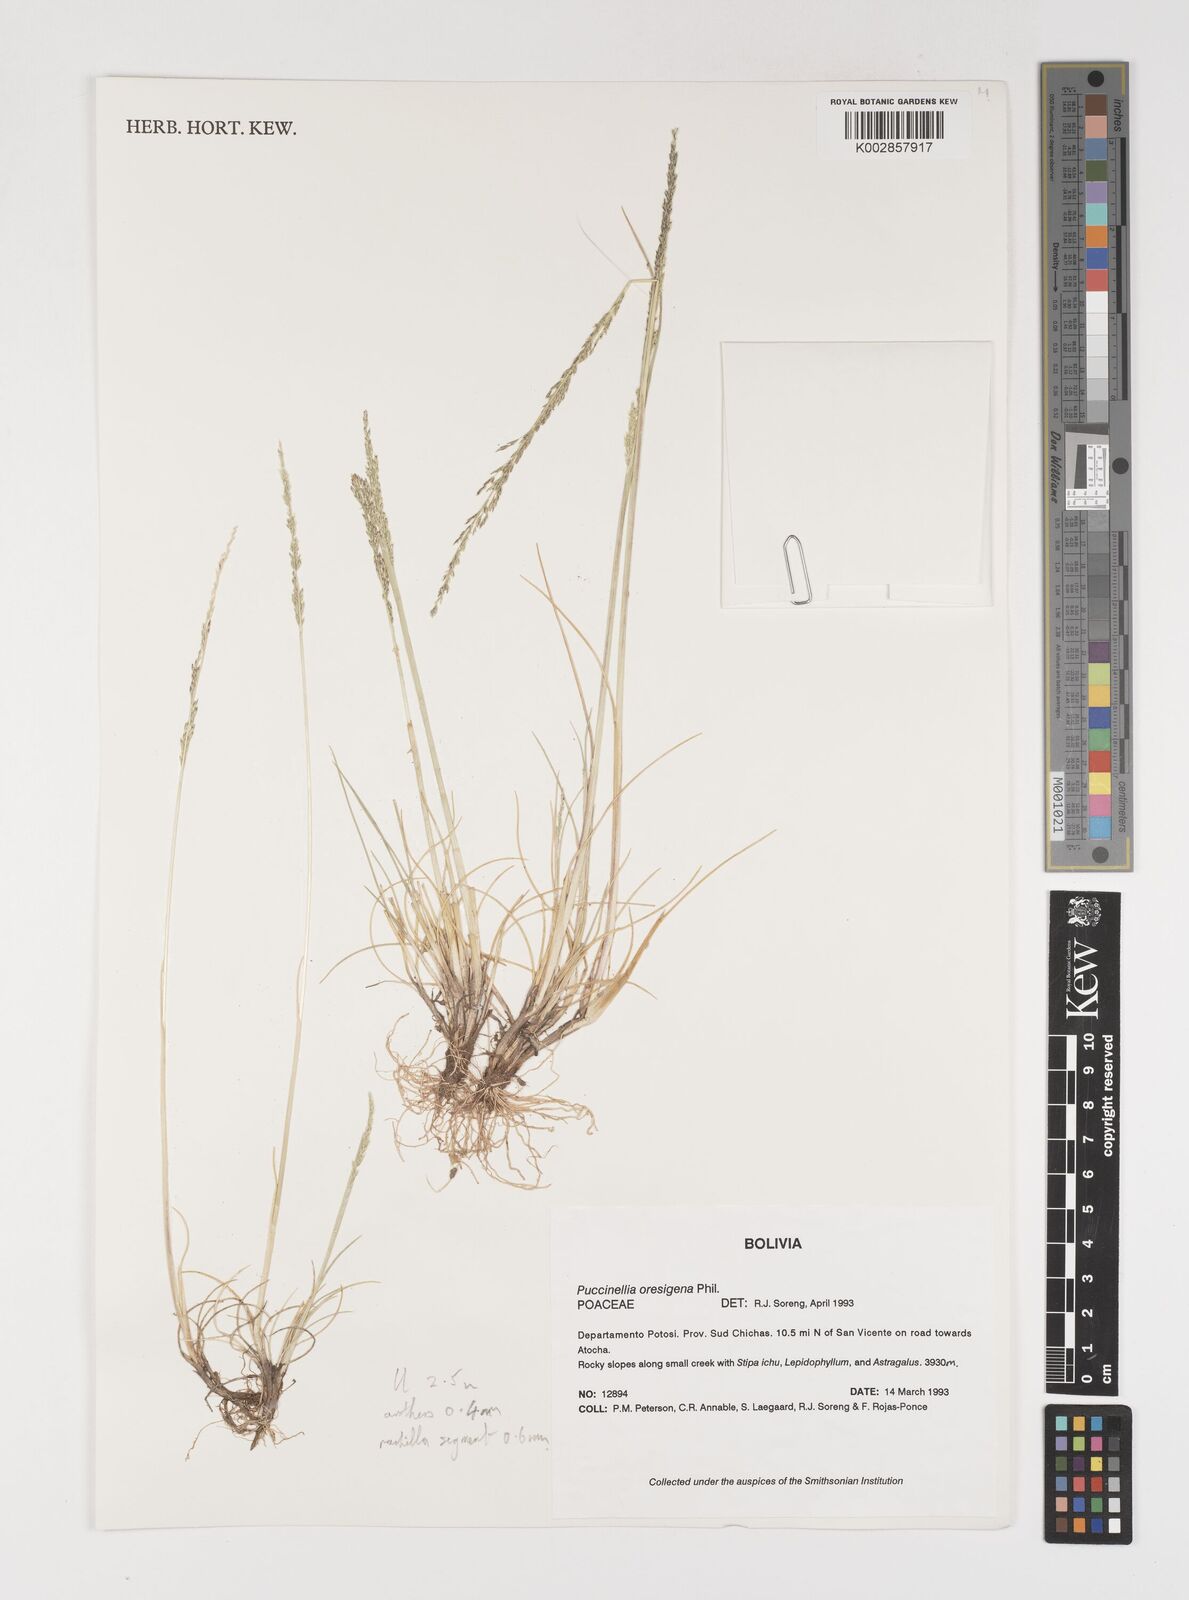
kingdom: Plantae
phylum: Tracheophyta
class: Liliopsida
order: Poales
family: Poaceae
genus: Puccinellia
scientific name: Puccinellia argentinensis
